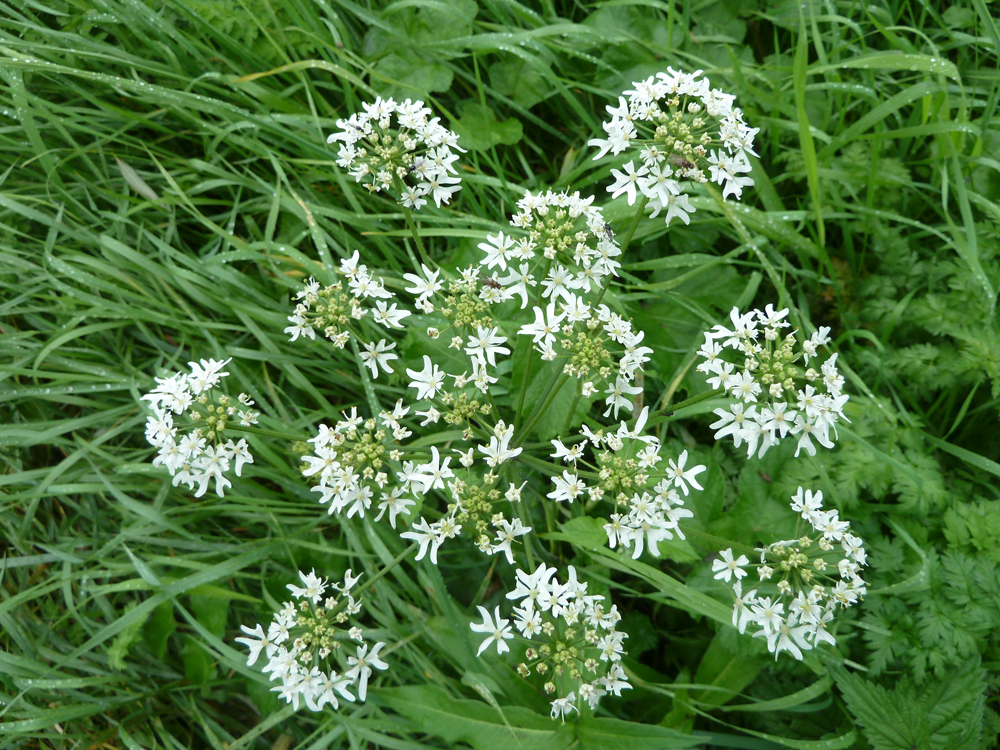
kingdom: Plantae
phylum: Tracheophyta
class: Magnoliopsida
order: Apiales
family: Apiaceae
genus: Heracleum
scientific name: Heracleum sphondylium
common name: Hogweed
